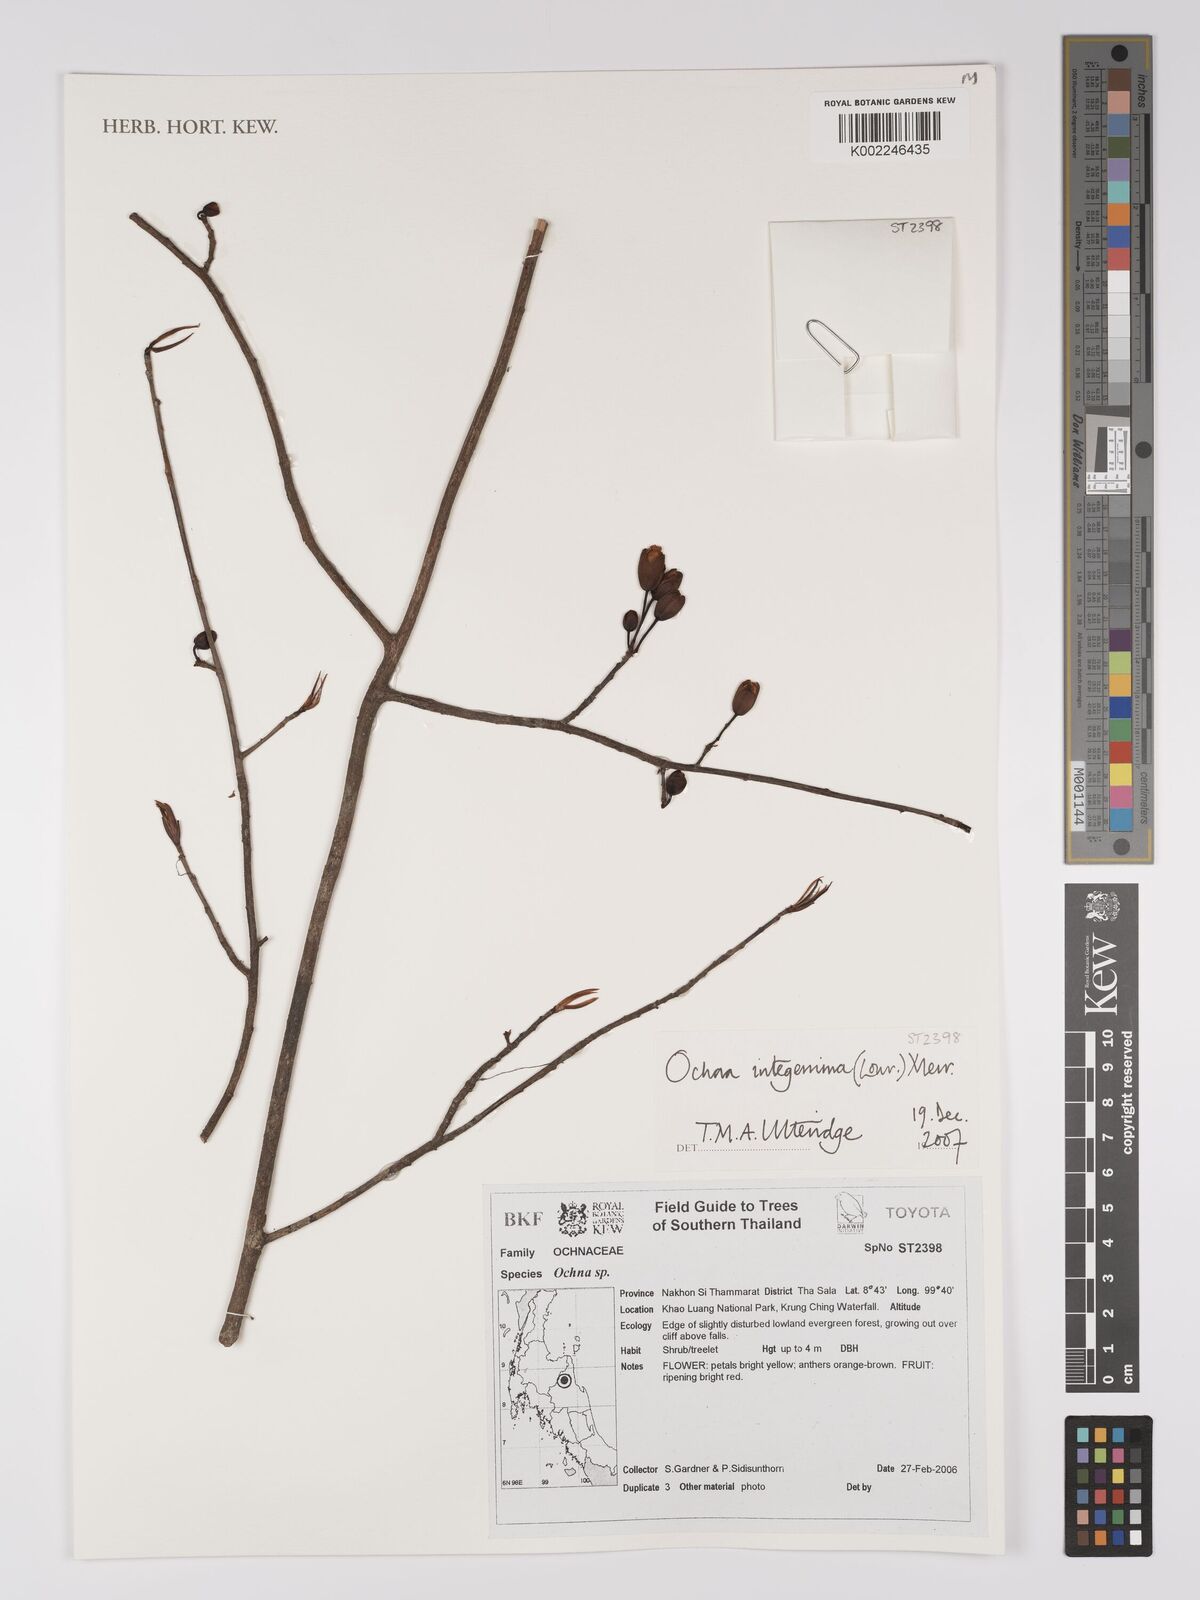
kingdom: Plantae
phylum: Tracheophyta
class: Magnoliopsida
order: Malpighiales
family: Ochnaceae
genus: Ochna
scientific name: Ochna
